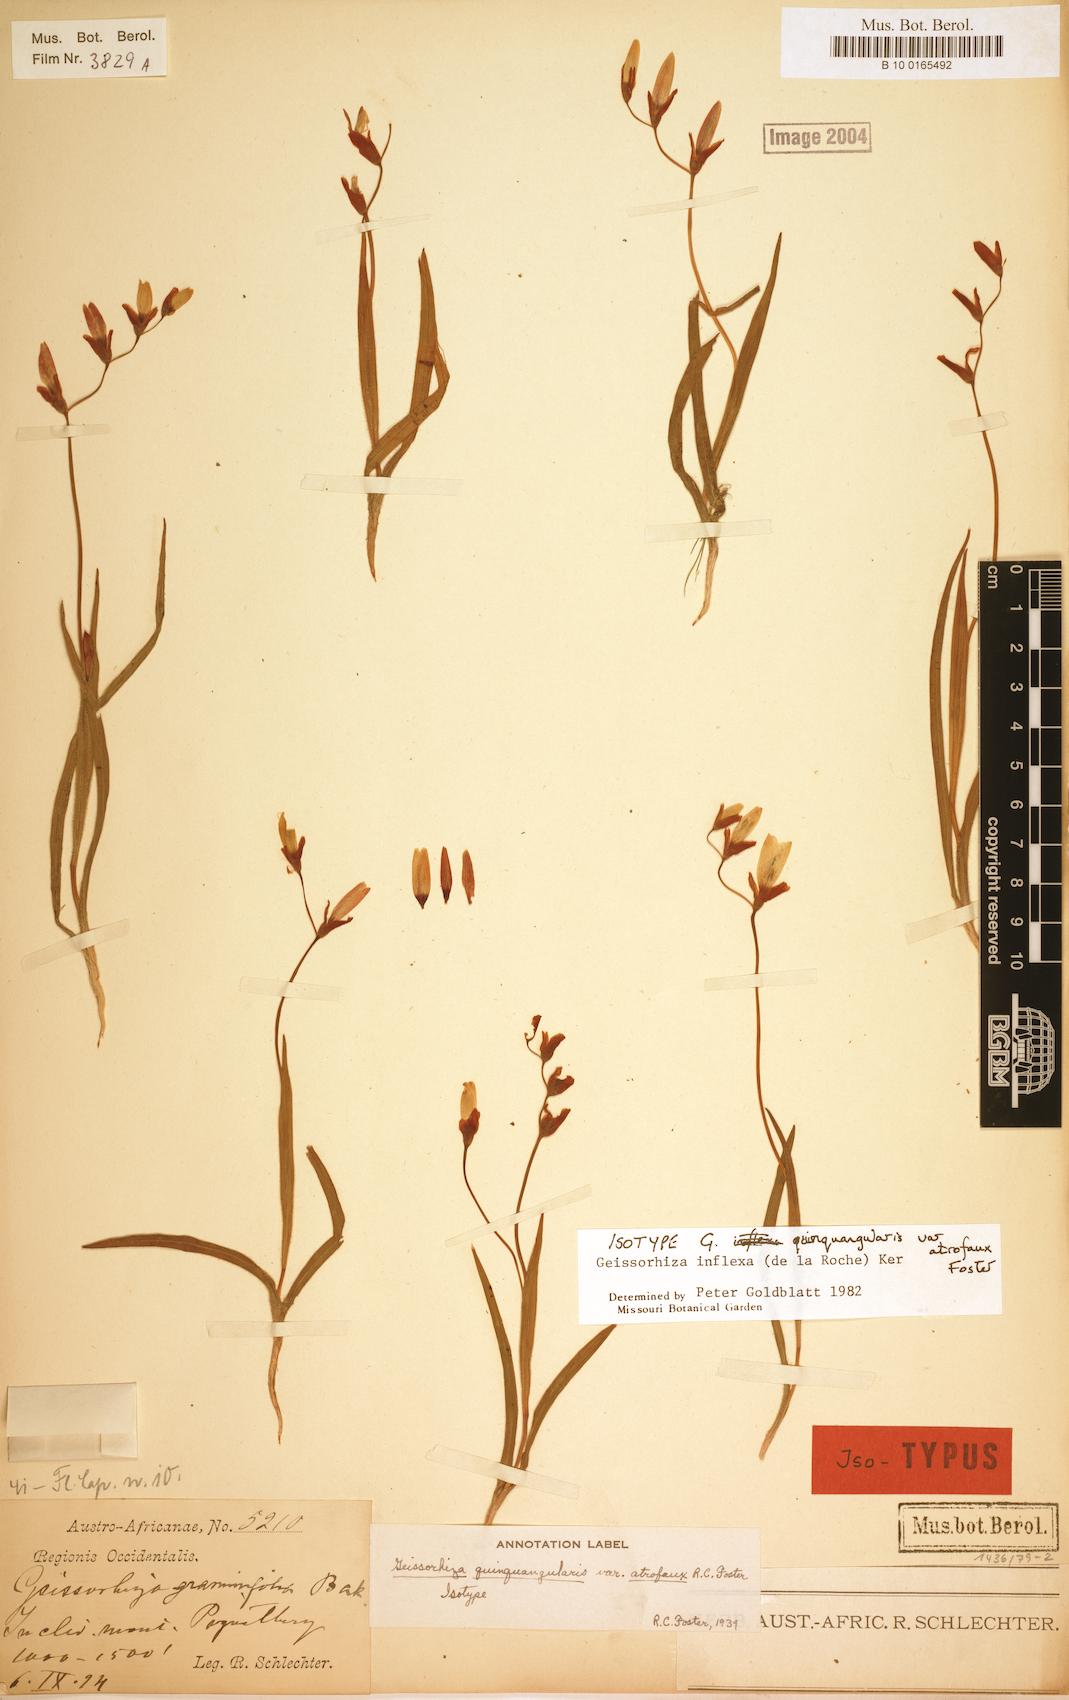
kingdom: Plantae
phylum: Tracheophyta
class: Liliopsida
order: Asparagales
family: Iridaceae
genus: Geissorhiza
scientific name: Geissorhiza inflexa
